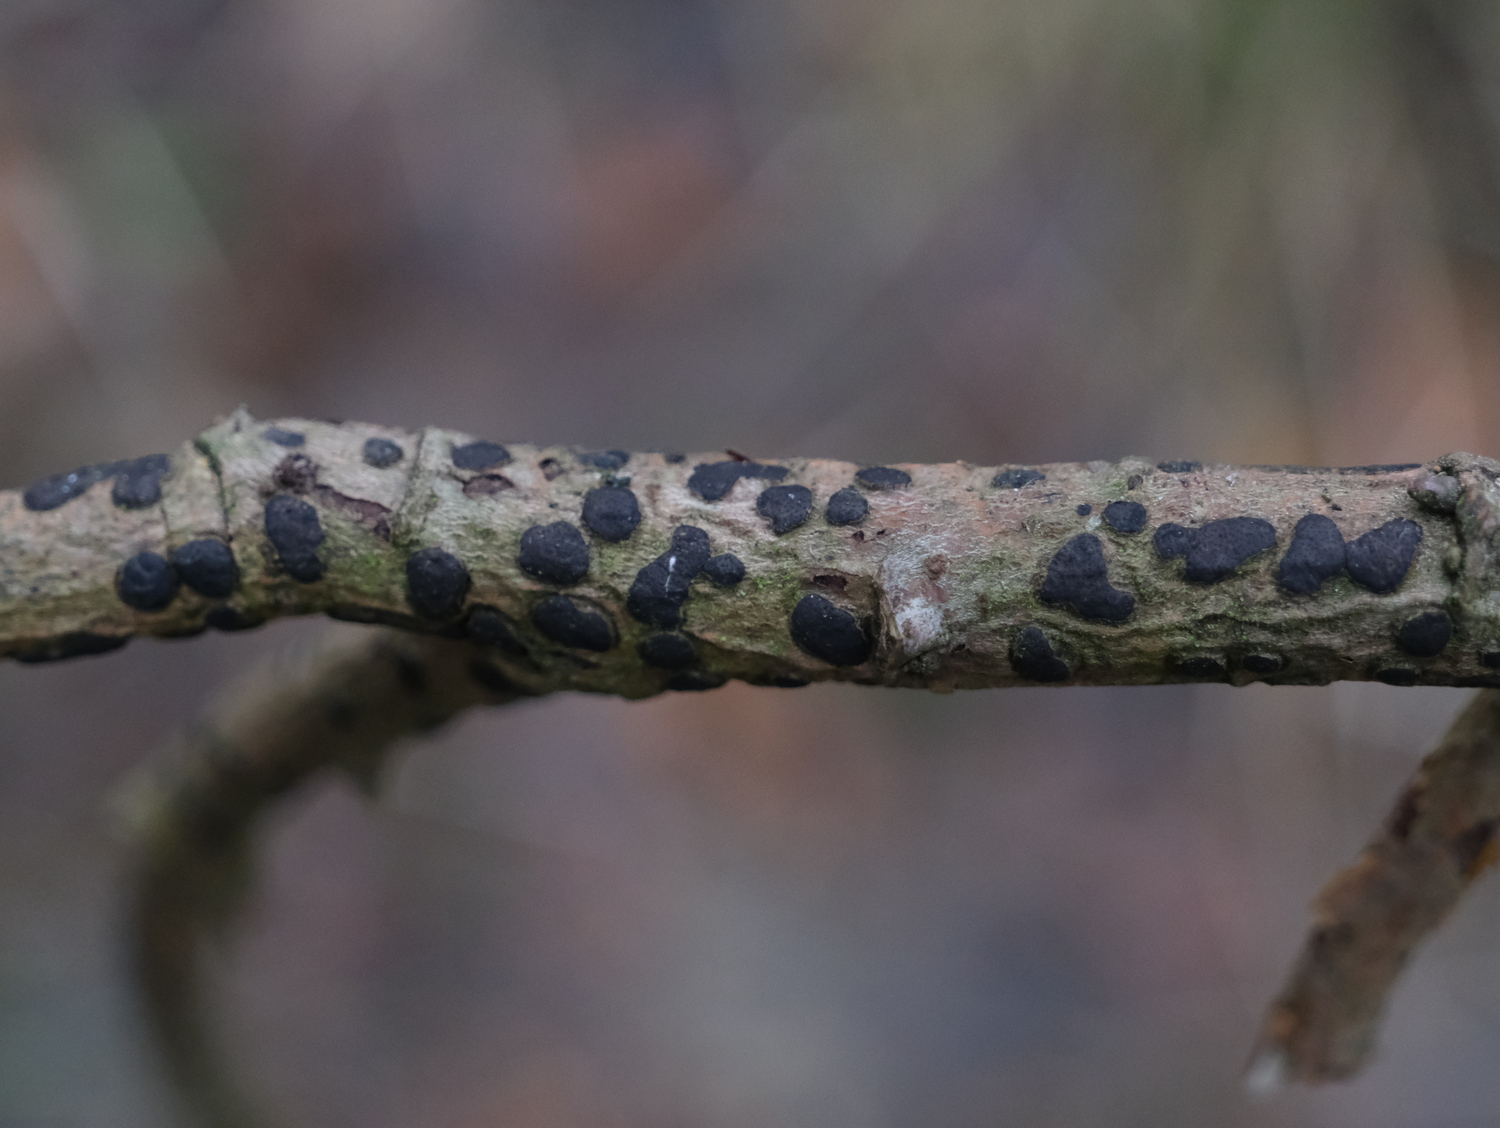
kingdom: Fungi
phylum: Ascomycota
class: Sordariomycetes
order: Xylariales
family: Diatrypaceae
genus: Diatrype
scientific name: Diatrype bullata
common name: pile-kulskorpe
